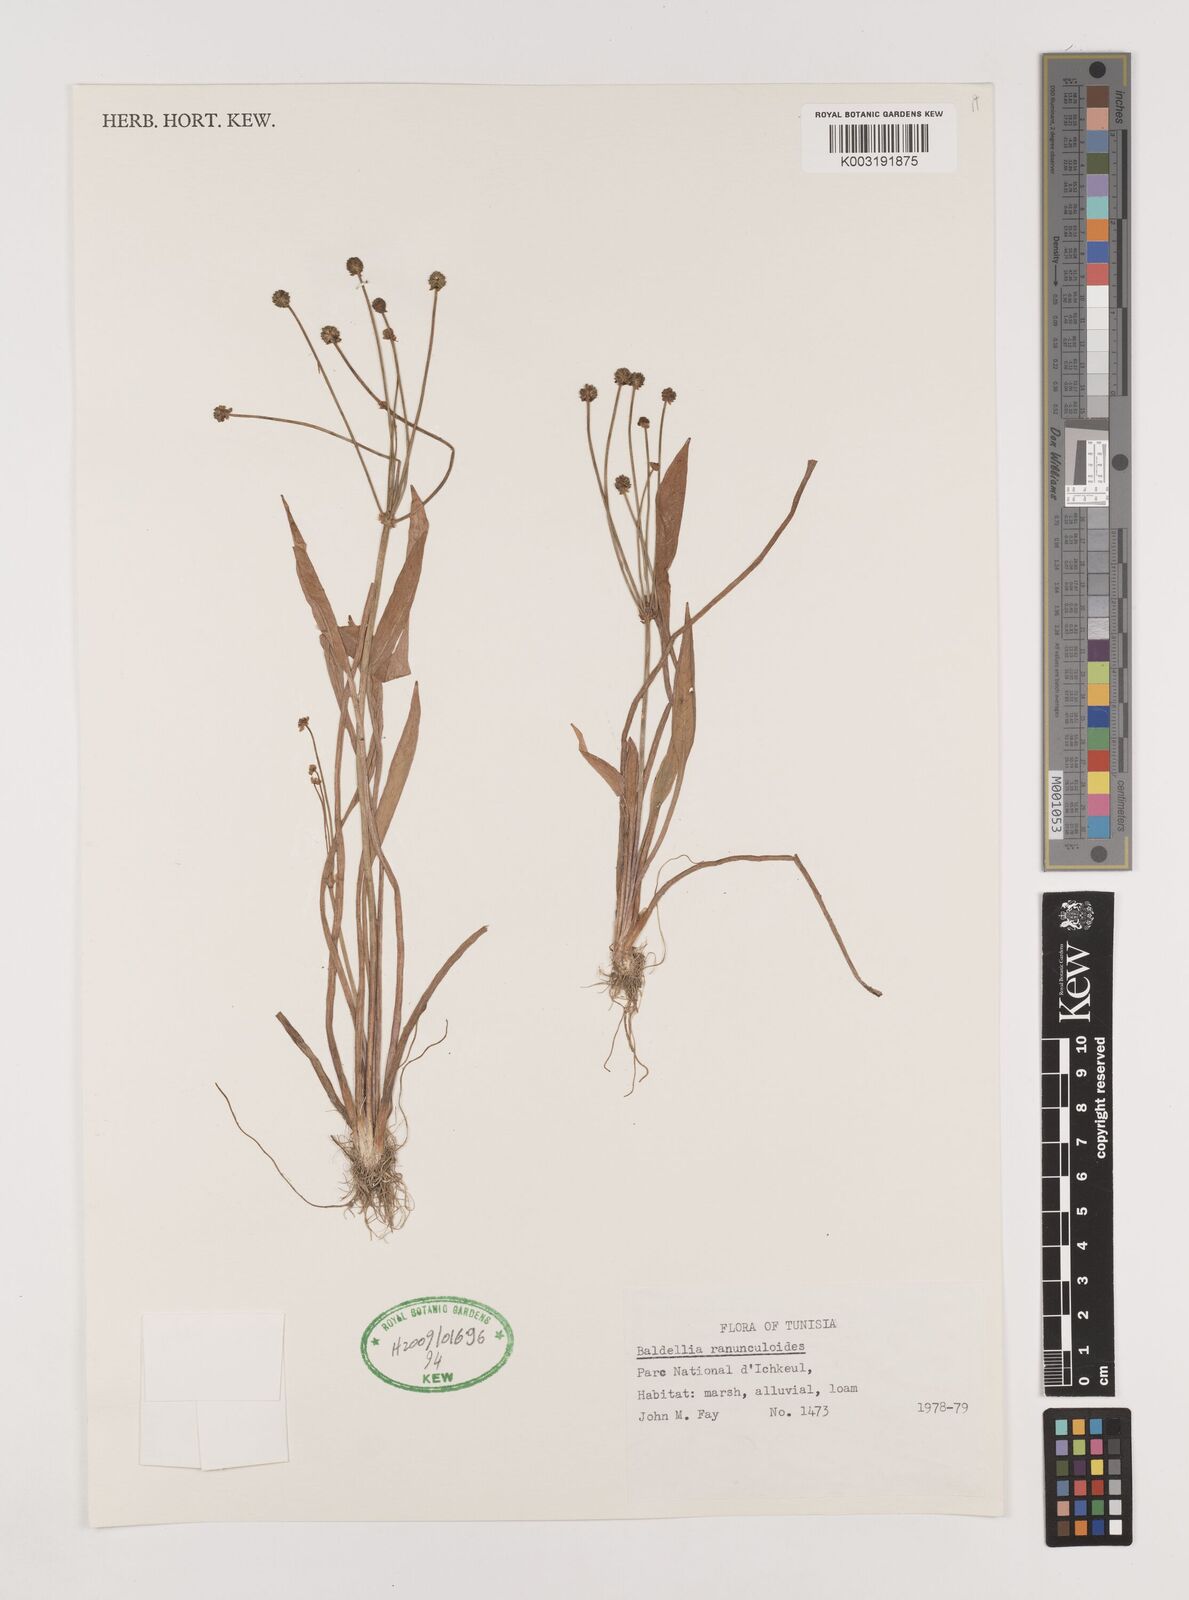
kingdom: Plantae
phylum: Tracheophyta
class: Liliopsida
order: Alismatales
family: Alismataceae
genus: Baldellia
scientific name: Baldellia ranunculoides
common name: Lesser water-plantain
